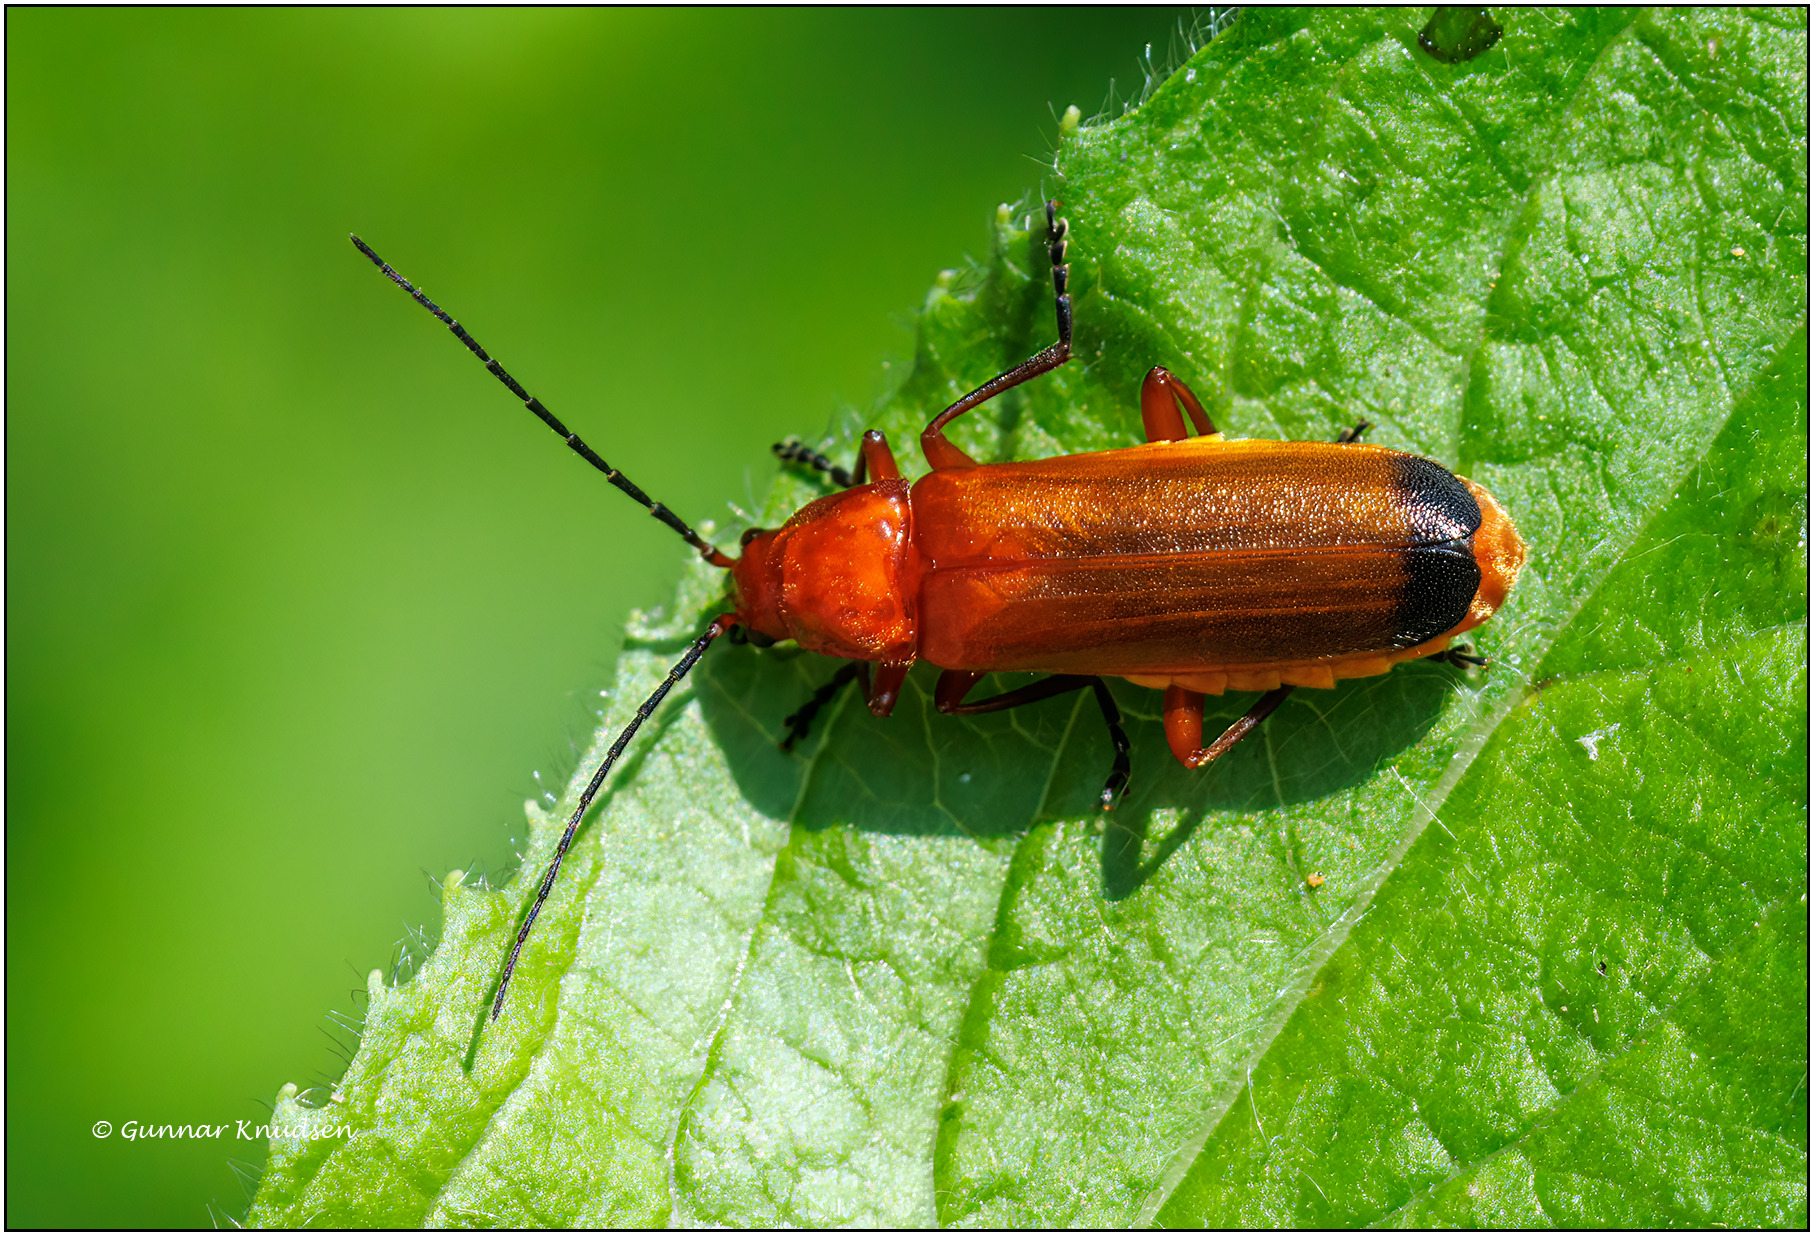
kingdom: Animalia
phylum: Arthropoda
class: Insecta
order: Coleoptera
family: Cantharidae
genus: Rhagonycha
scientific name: Rhagonycha fulva
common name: Præstebille
